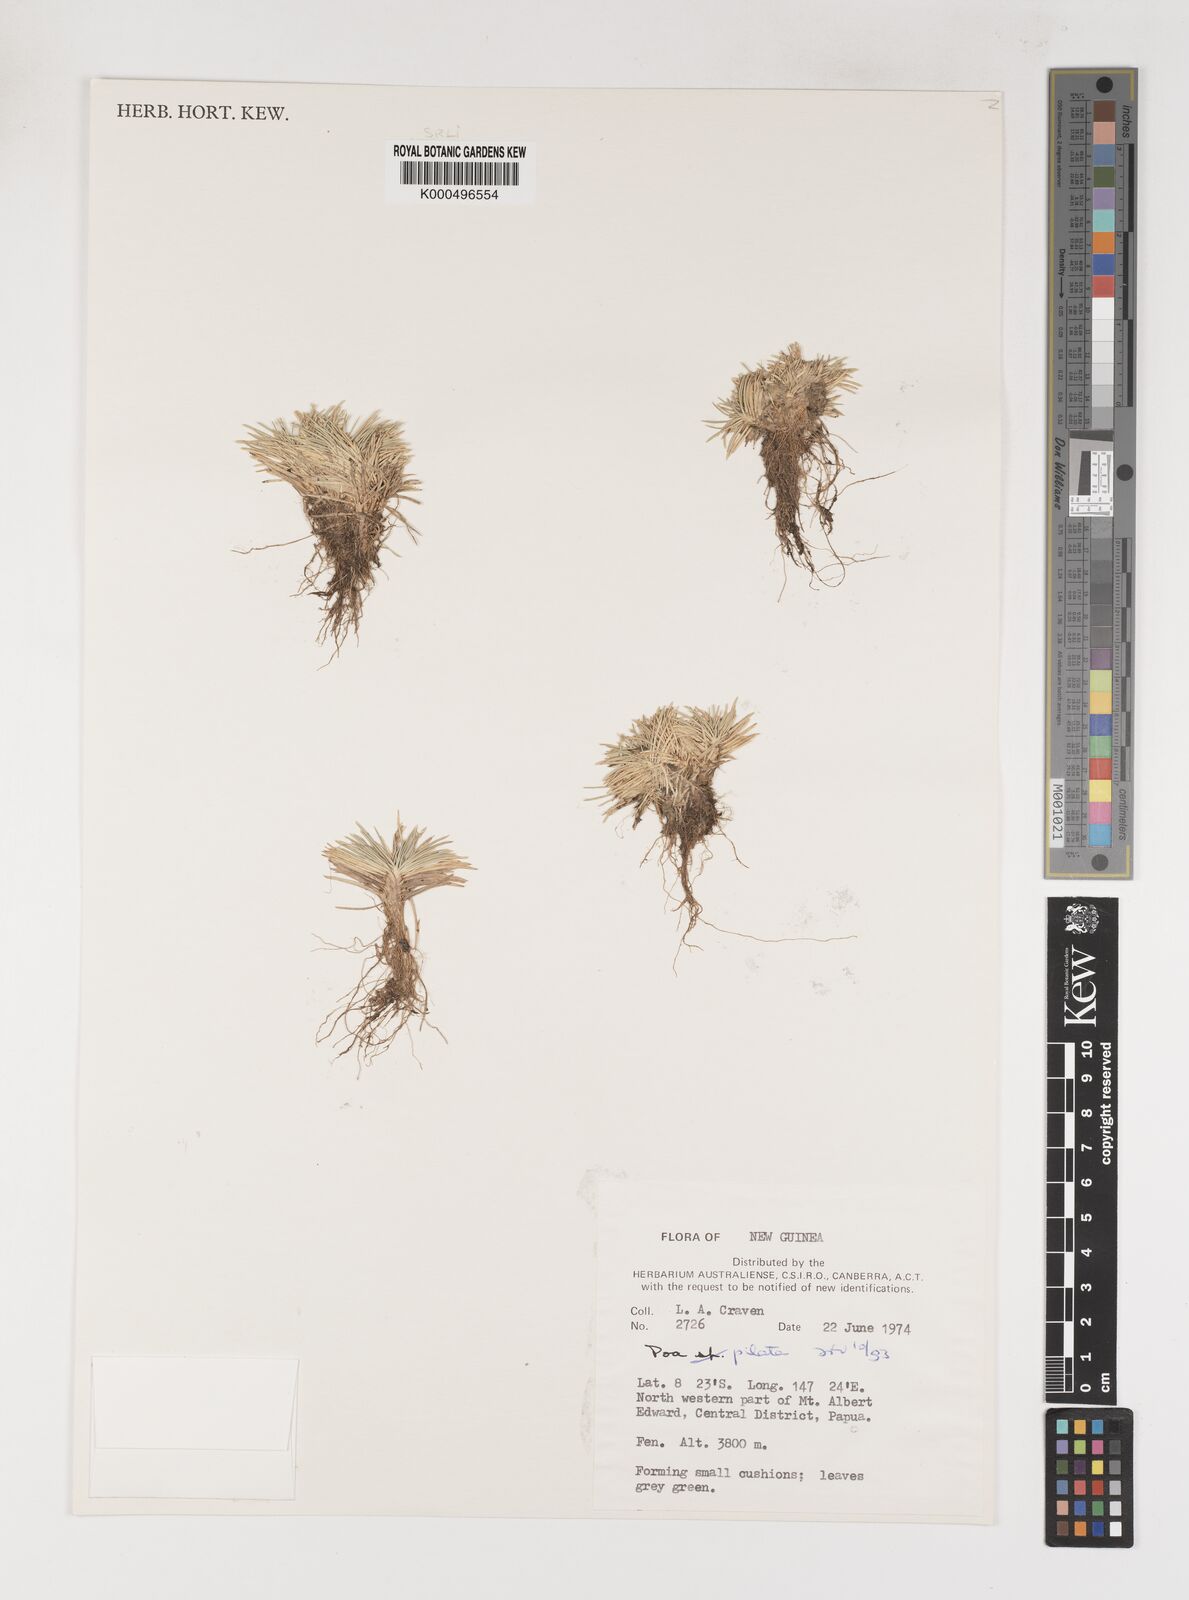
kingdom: Plantae
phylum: Tracheophyta
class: Liliopsida
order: Poales
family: Poaceae
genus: Poa
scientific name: Poa pilata
